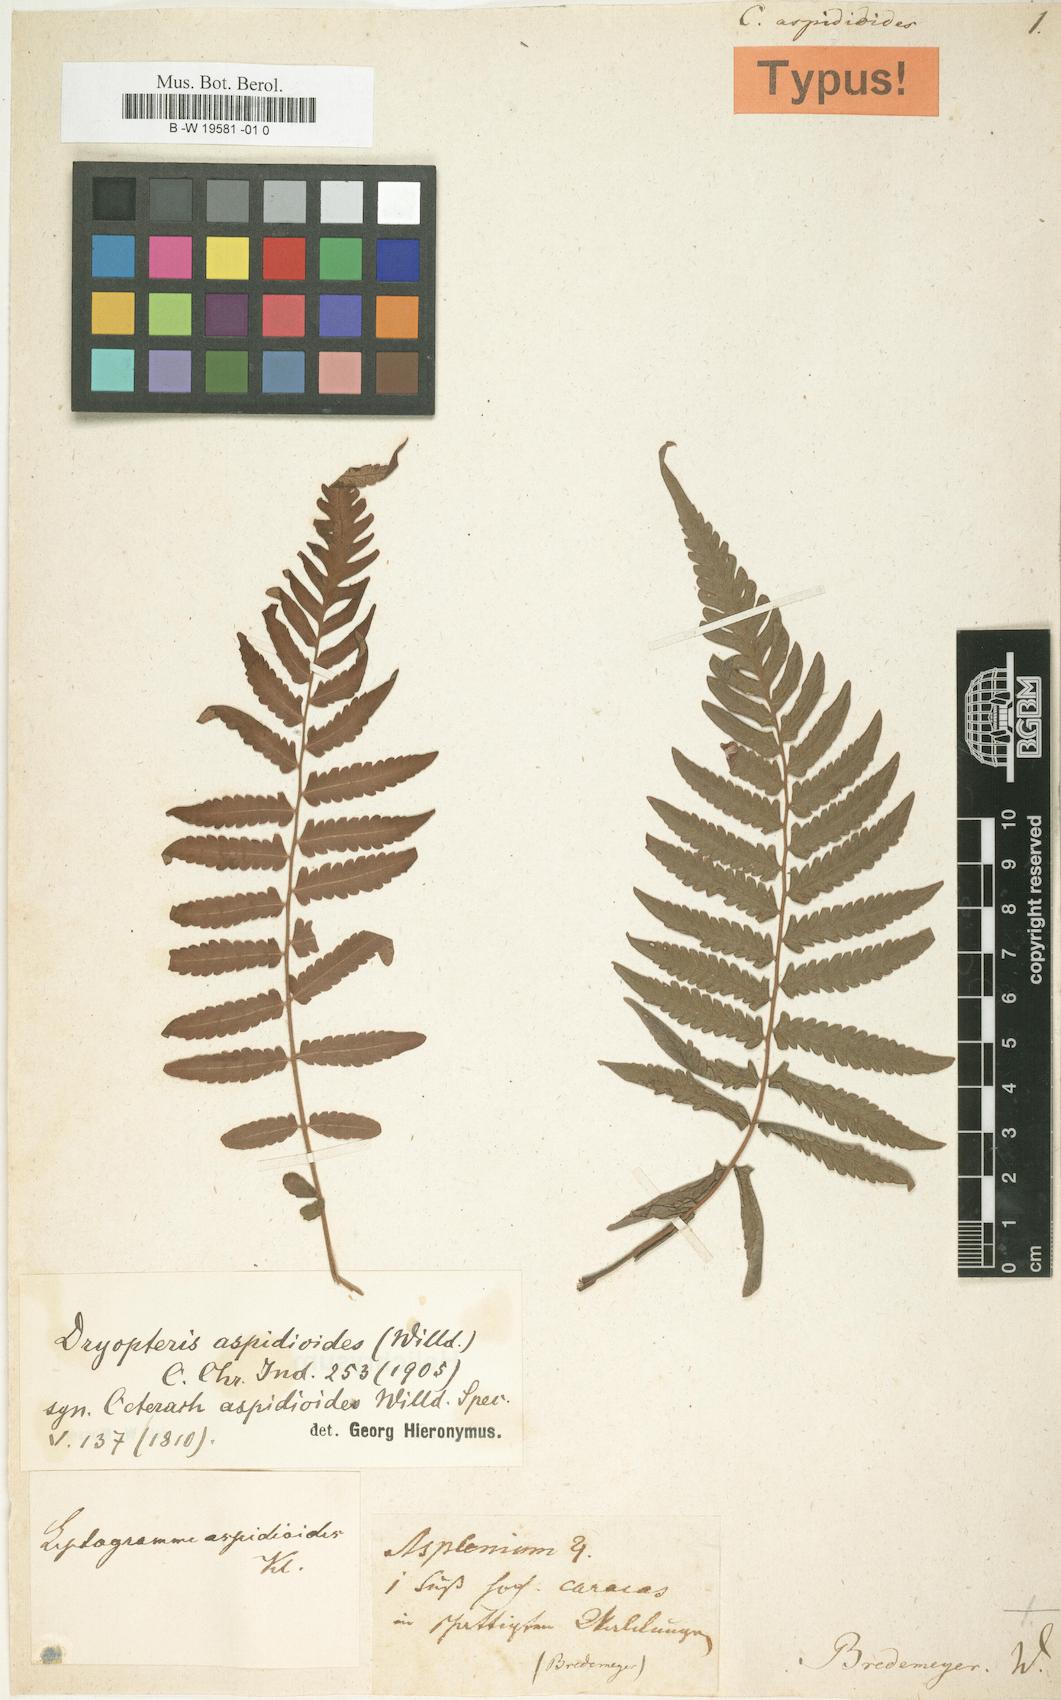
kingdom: Plantae
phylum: Tracheophyta
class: Polypodiopsida
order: Polypodiales
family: Thelypteridaceae
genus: Amauropelta
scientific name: Amauropelta aspidioides
